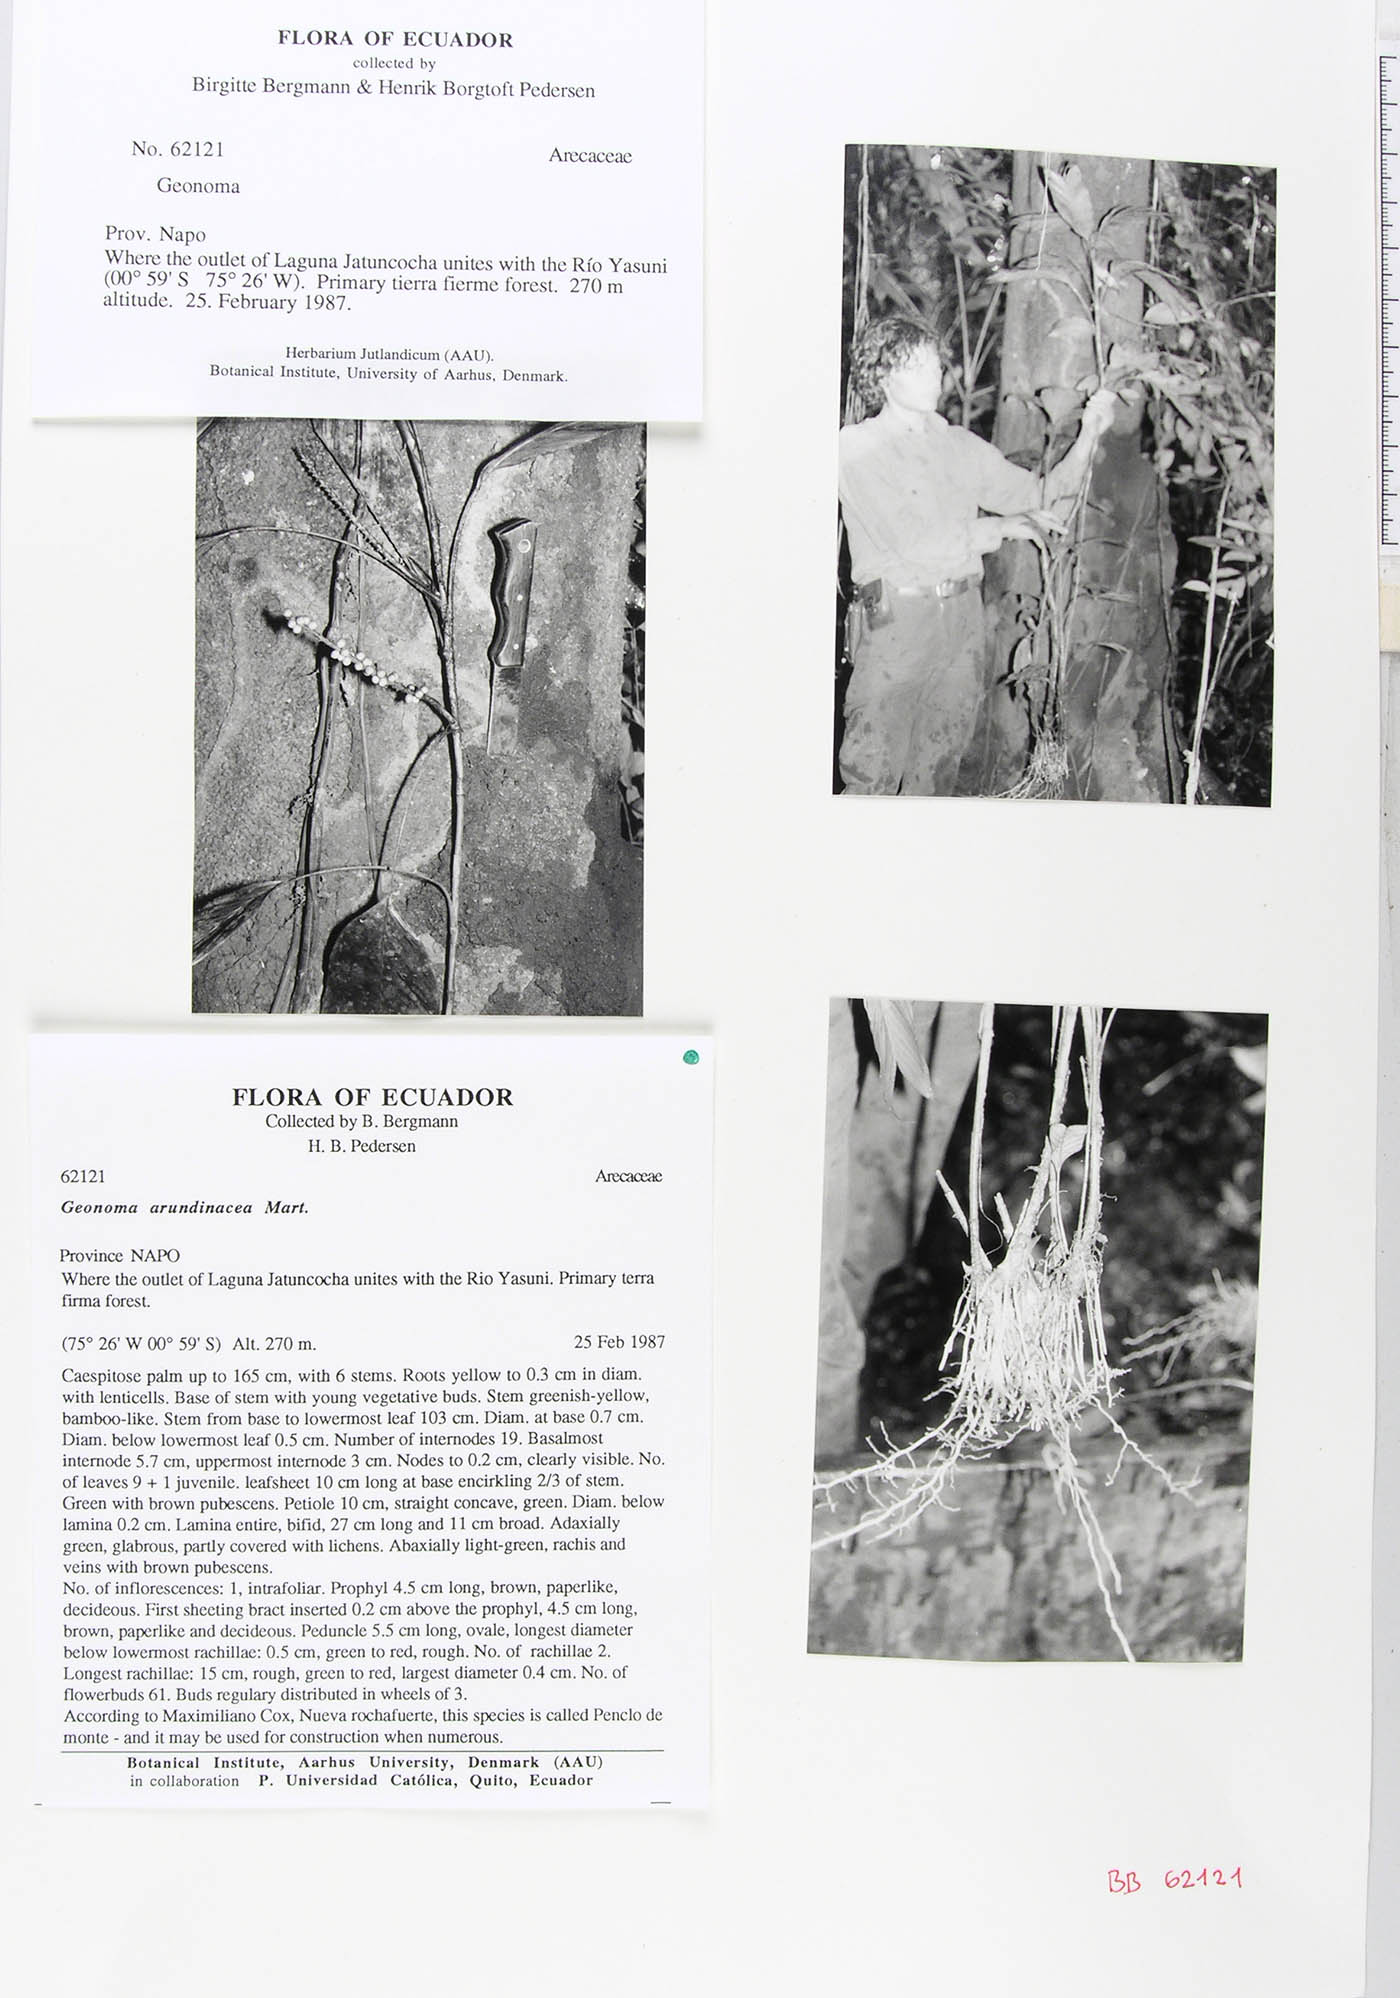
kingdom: Plantae
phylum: Tracheophyta
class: Liliopsida
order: Arecales
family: Arecaceae
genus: Geonoma
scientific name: Geonoma stricta
